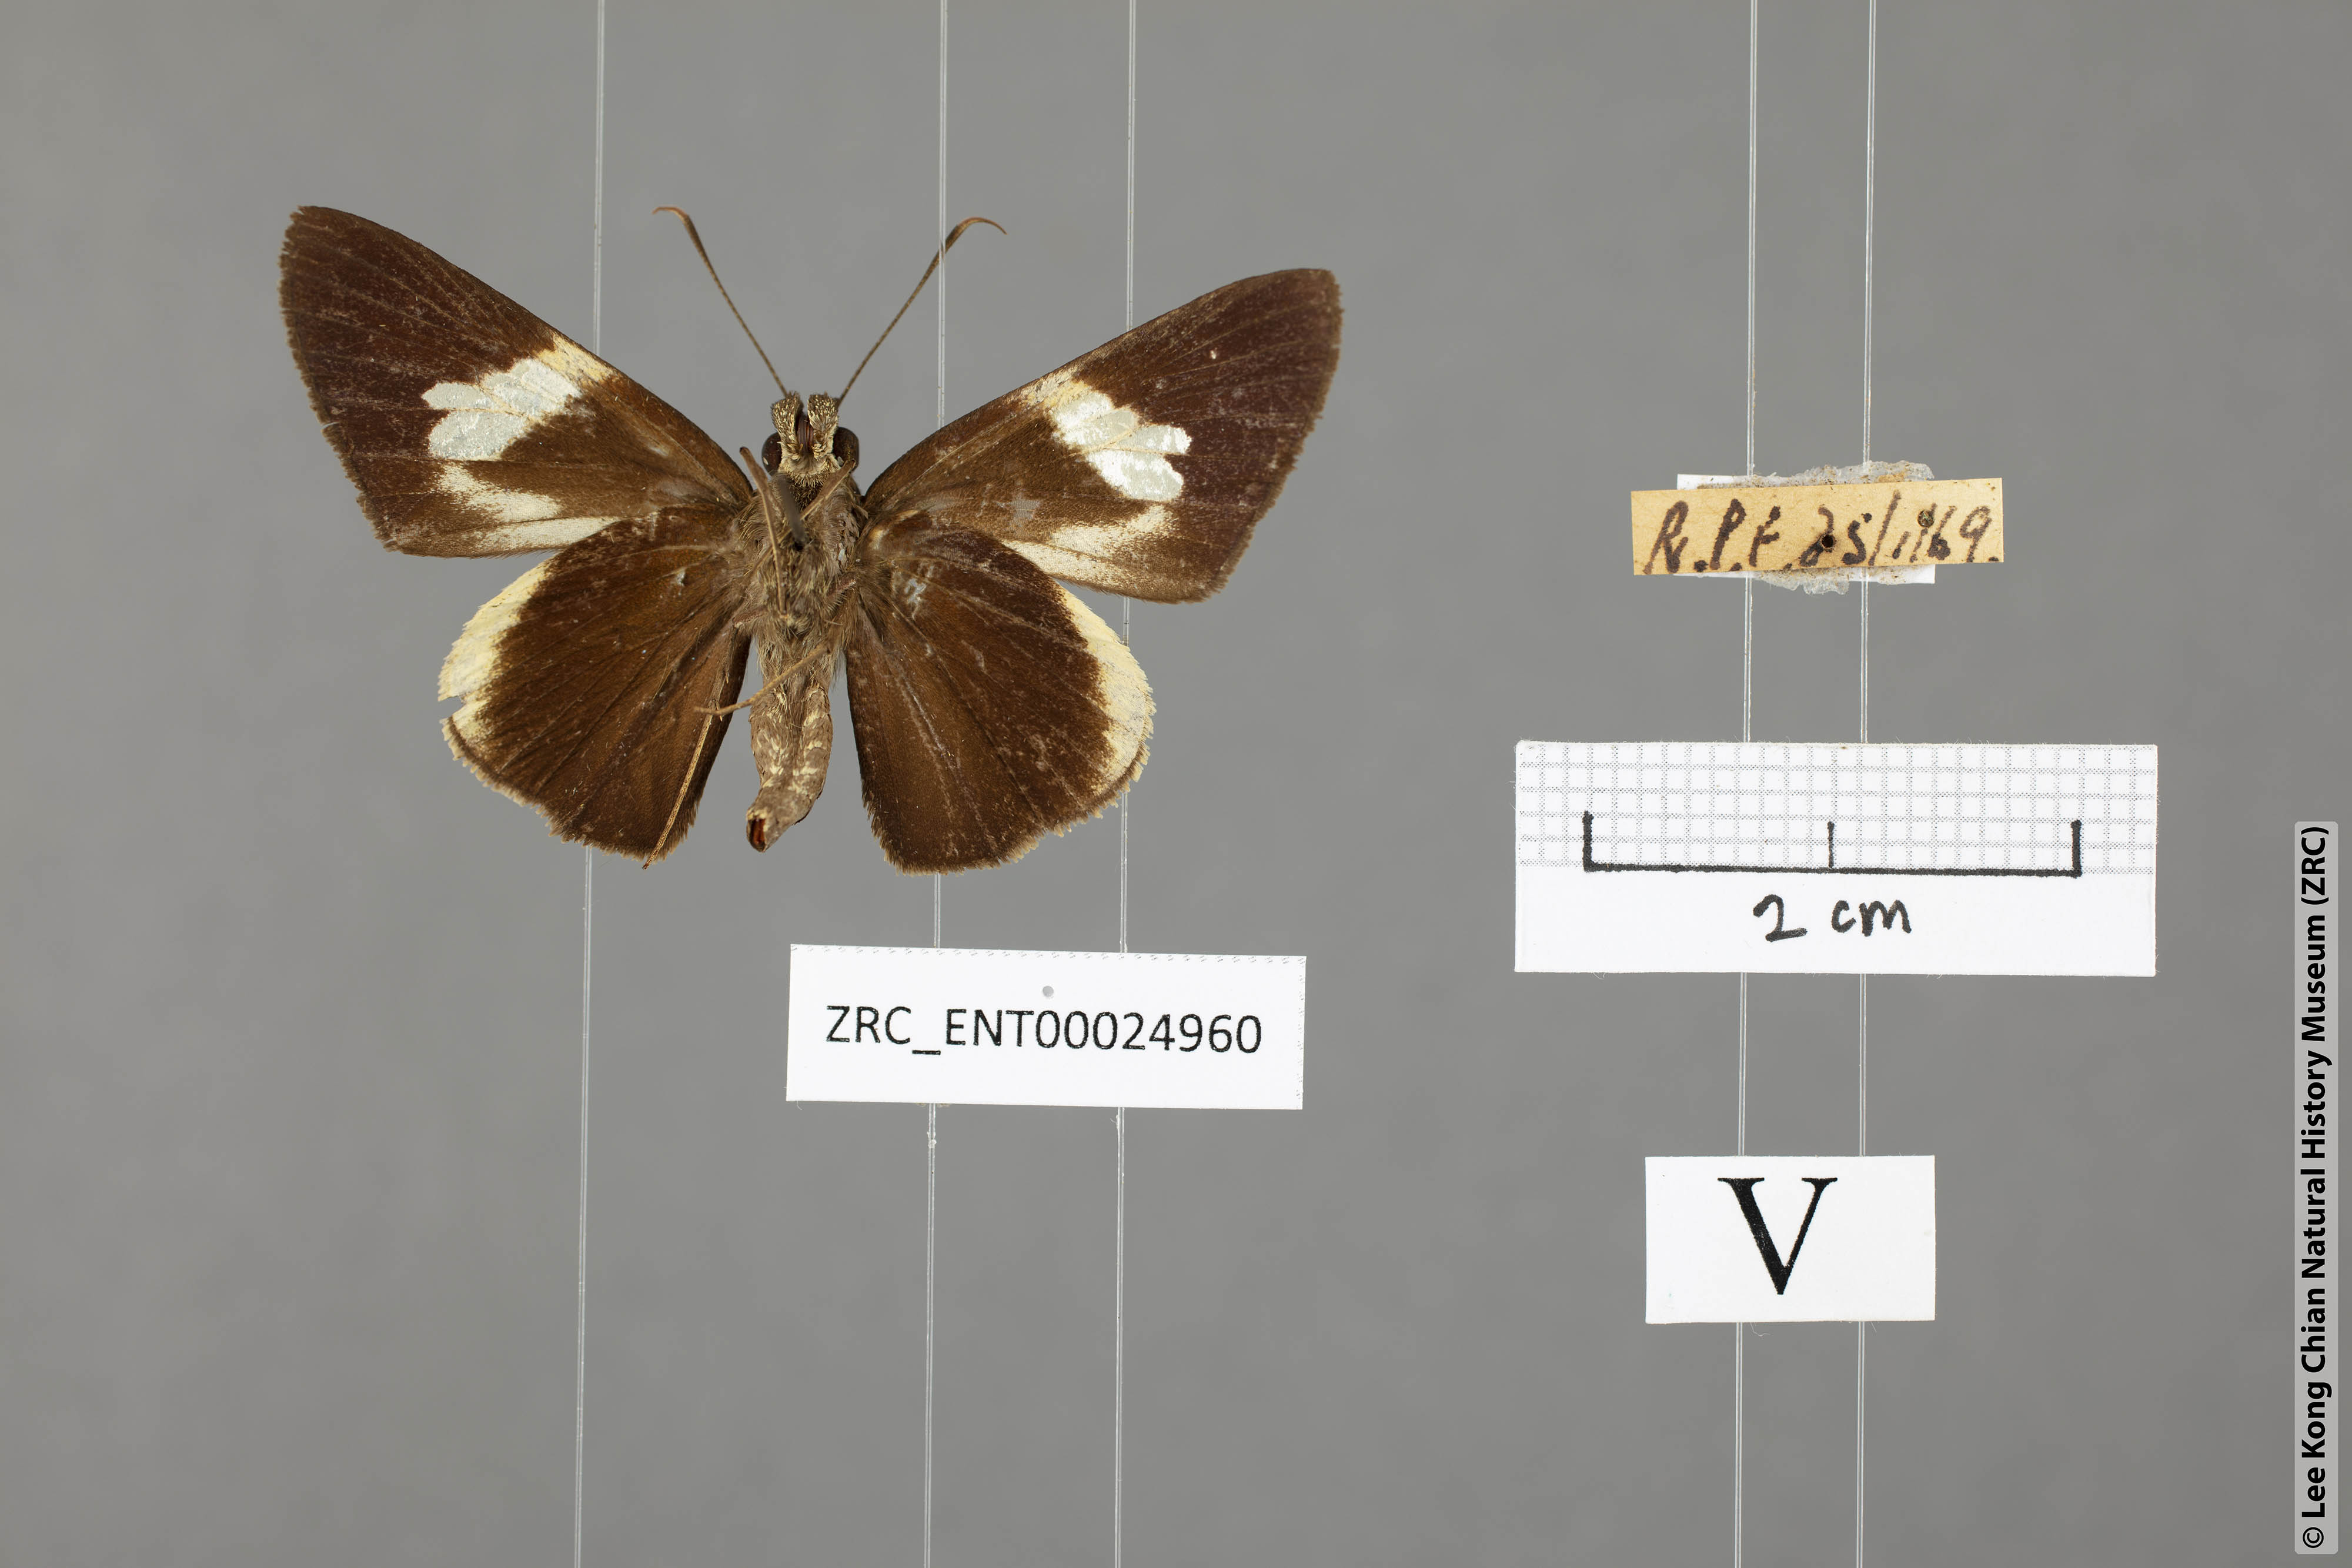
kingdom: Animalia
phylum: Arthropoda
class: Insecta
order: Lepidoptera
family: Hesperiidae
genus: Lotongus
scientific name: Lotongus calathus
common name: White-tipped palmer
